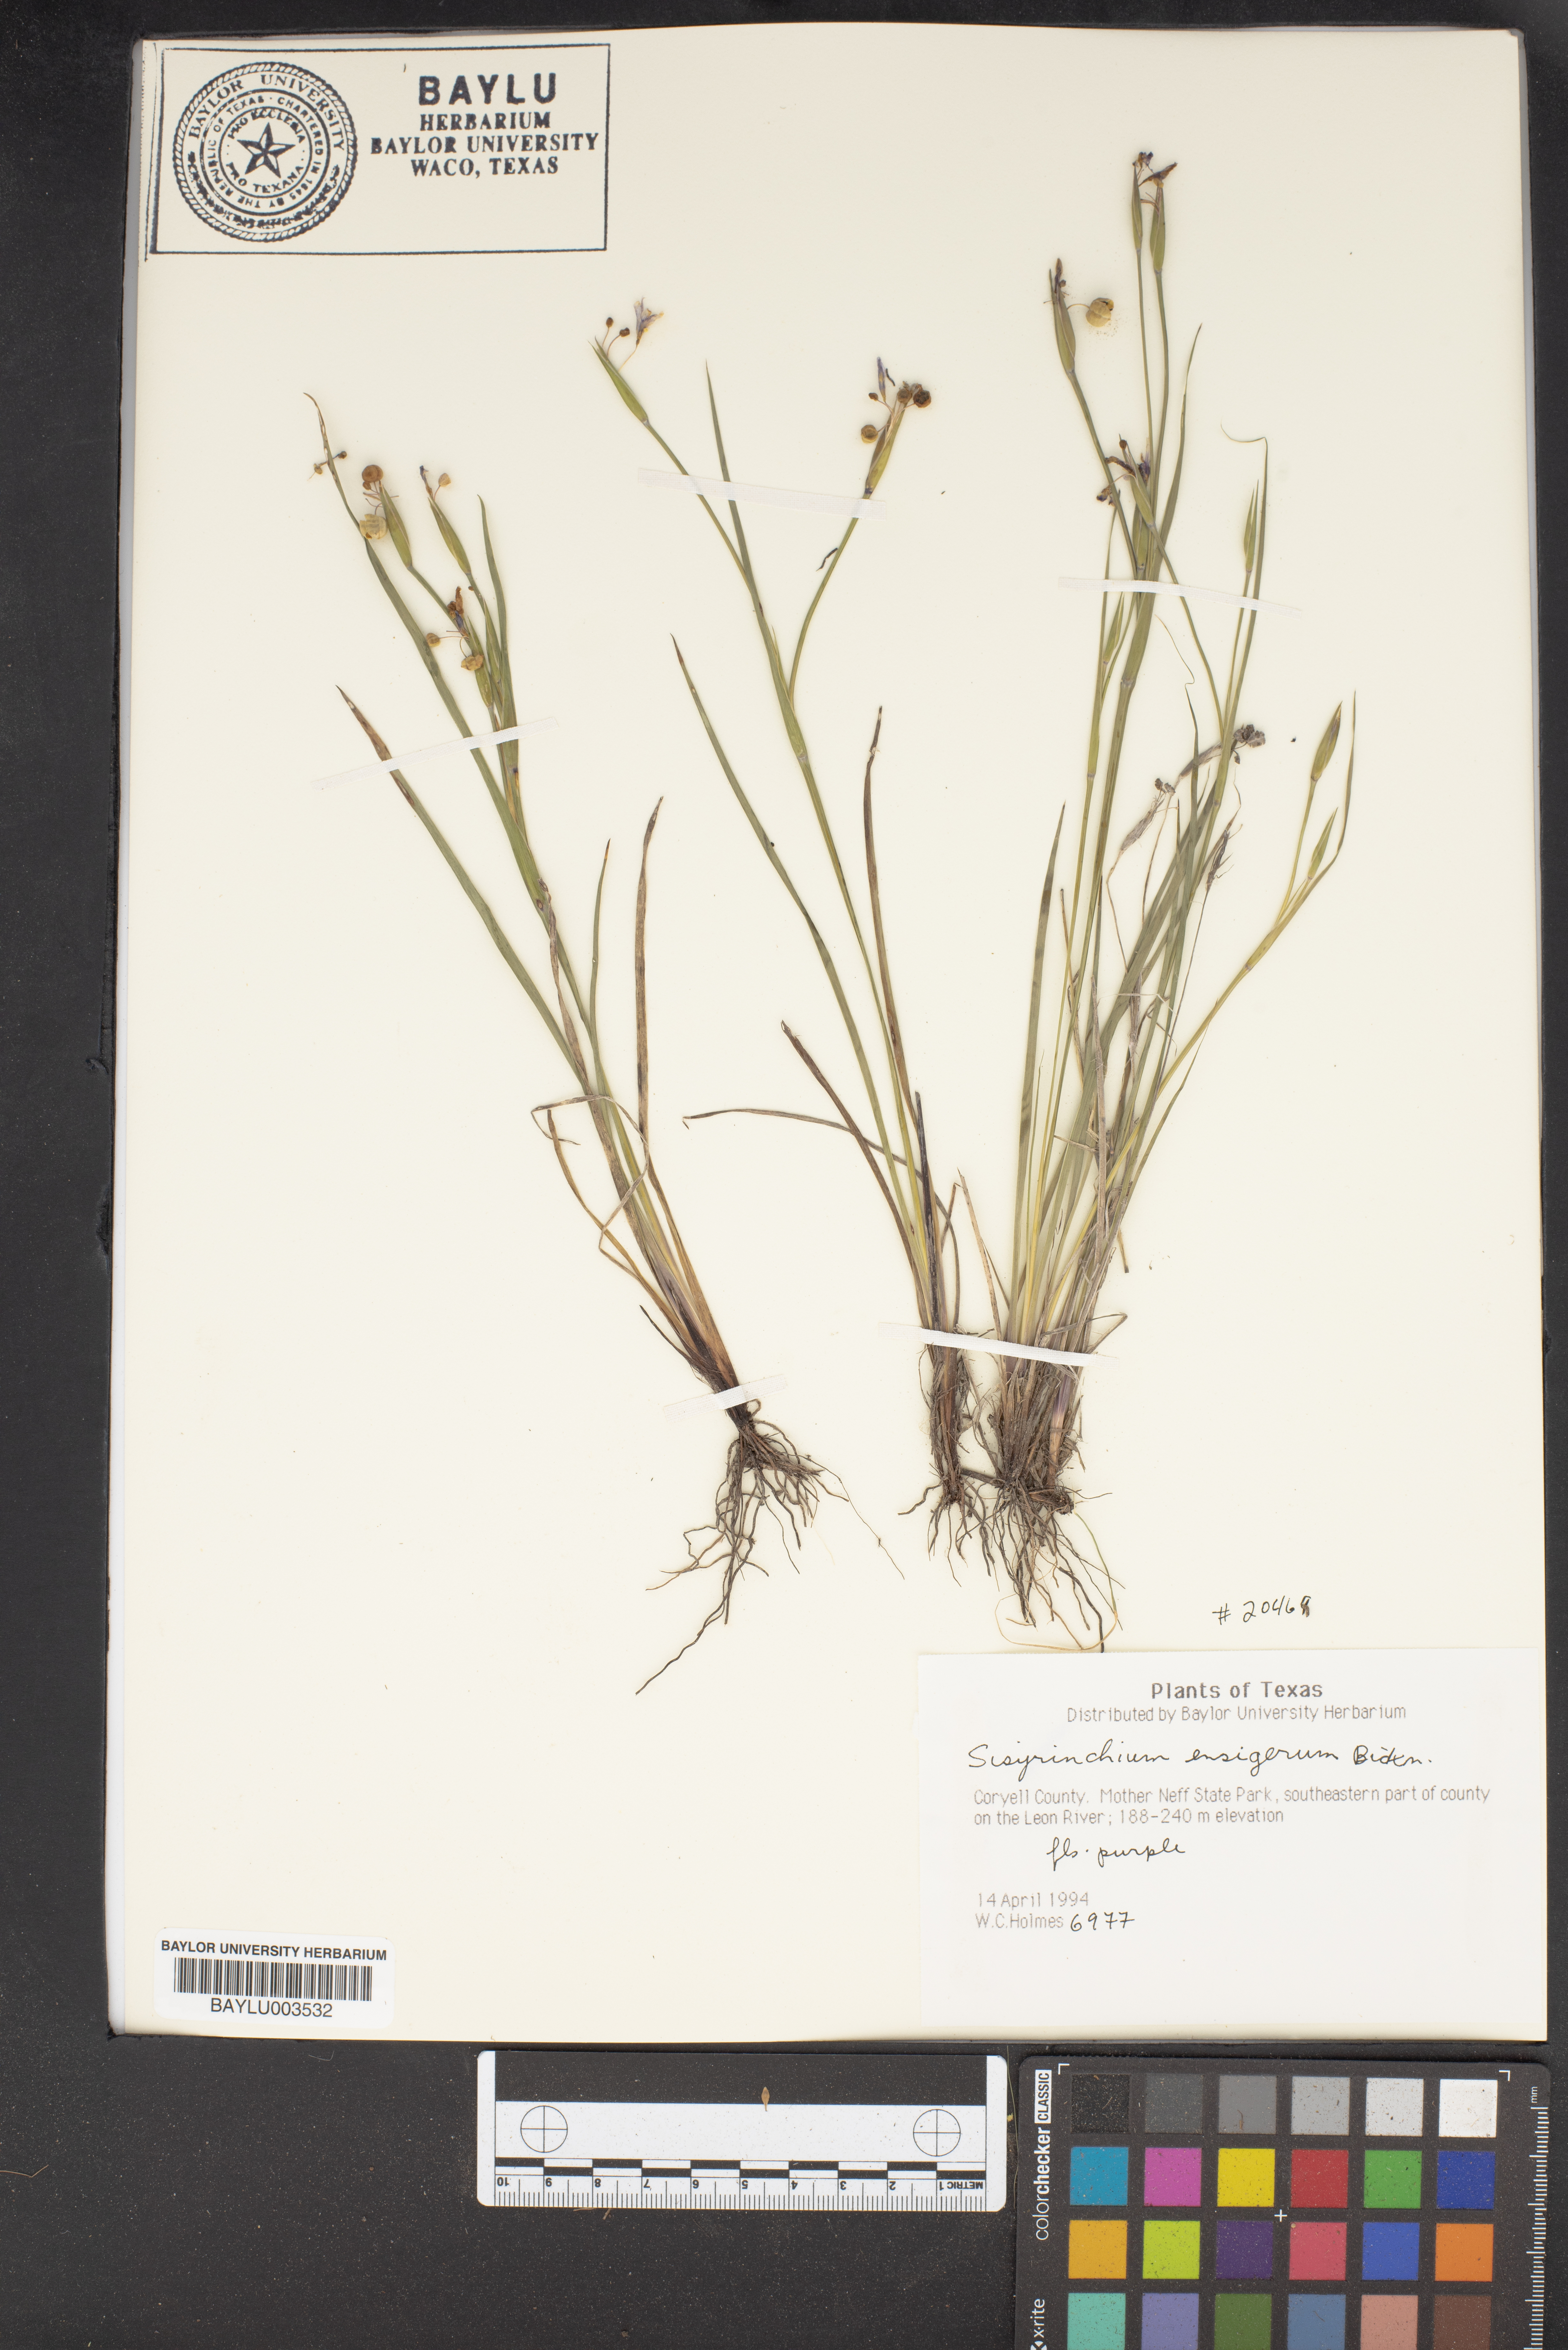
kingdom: Plantae
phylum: Tracheophyta
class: Liliopsida
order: Asparagales
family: Iridaceae
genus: Sisyrinchium
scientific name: Sisyrinchium ensigerum
